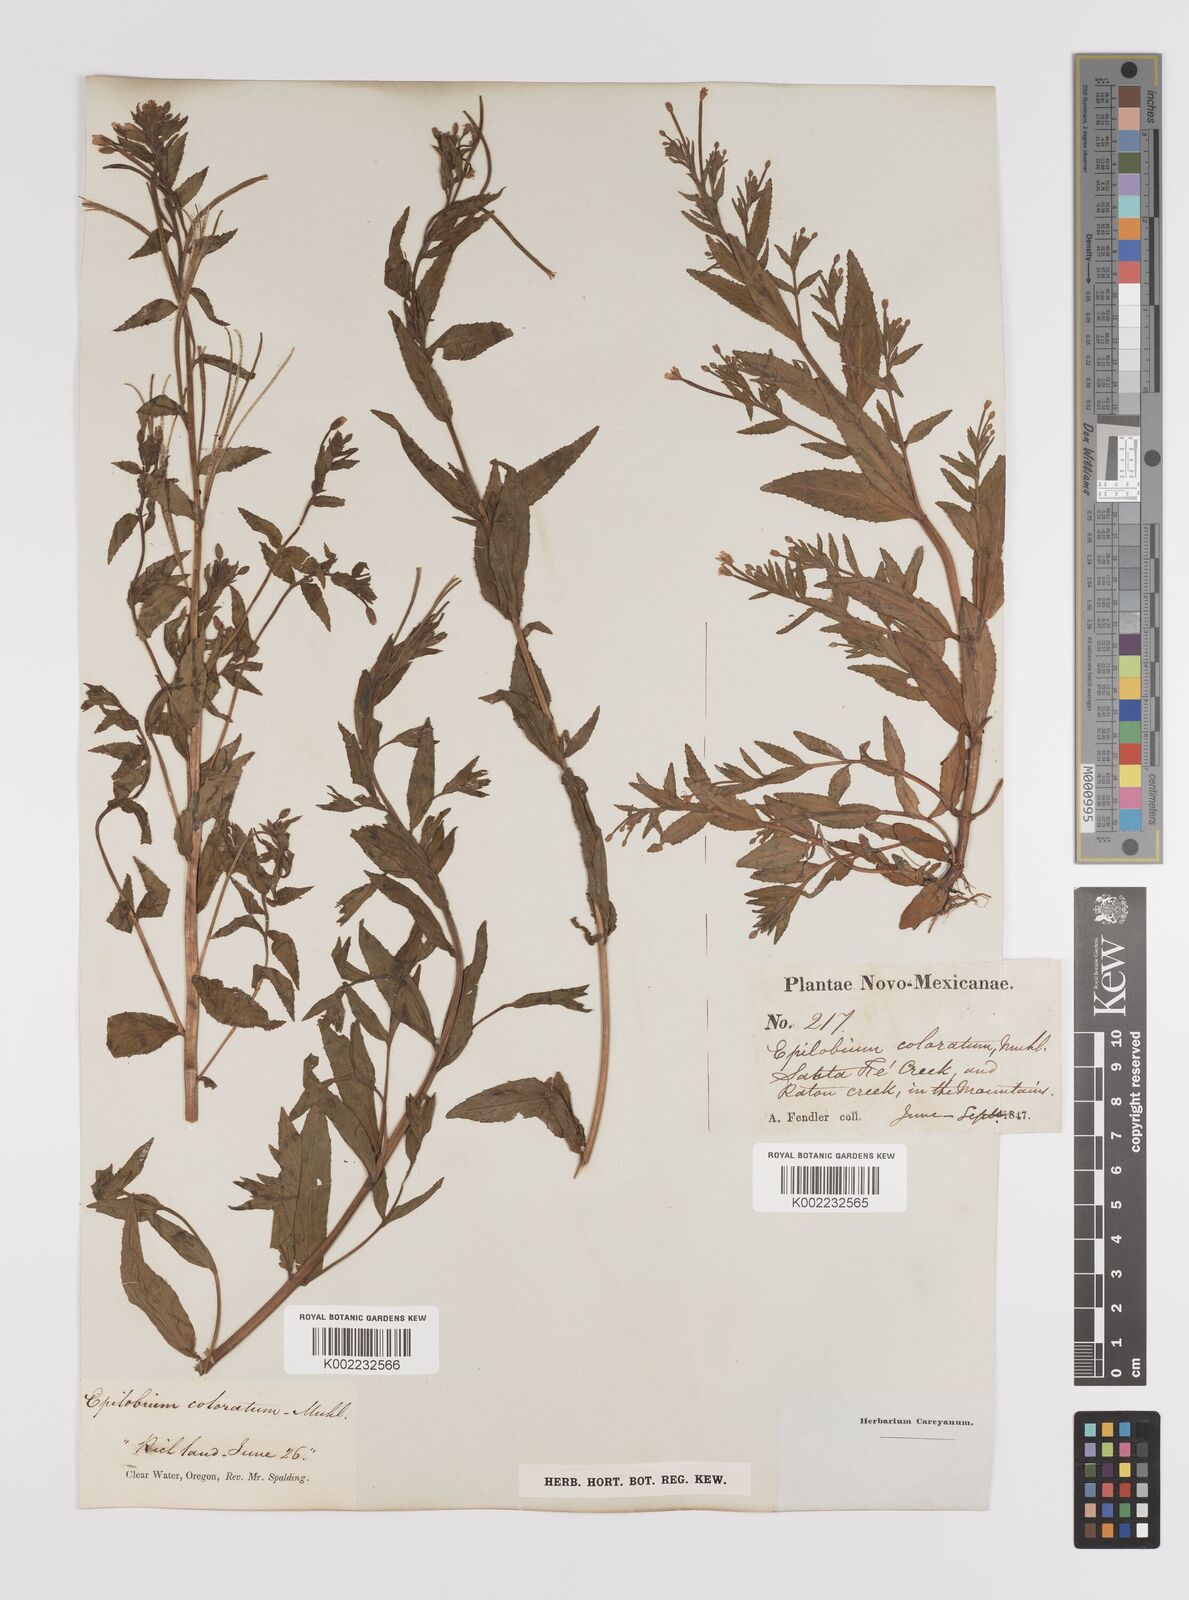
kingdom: Plantae
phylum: Tracheophyta
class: Magnoliopsida
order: Myrtales
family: Onagraceae
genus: Epilobium
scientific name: Epilobium coloratum
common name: Bronze willowherb
